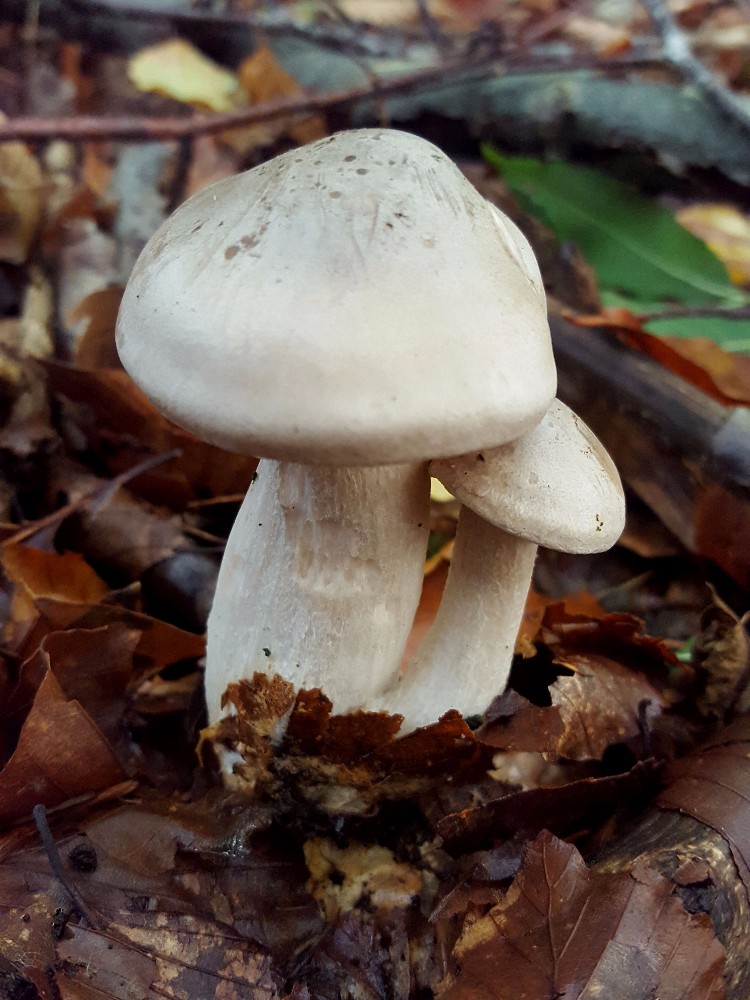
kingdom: Fungi
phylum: Basidiomycota
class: Agaricomycetes
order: Agaricales
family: Tricholomataceae
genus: Clitocybe
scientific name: Clitocybe nebularis
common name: tåge-tragthat
